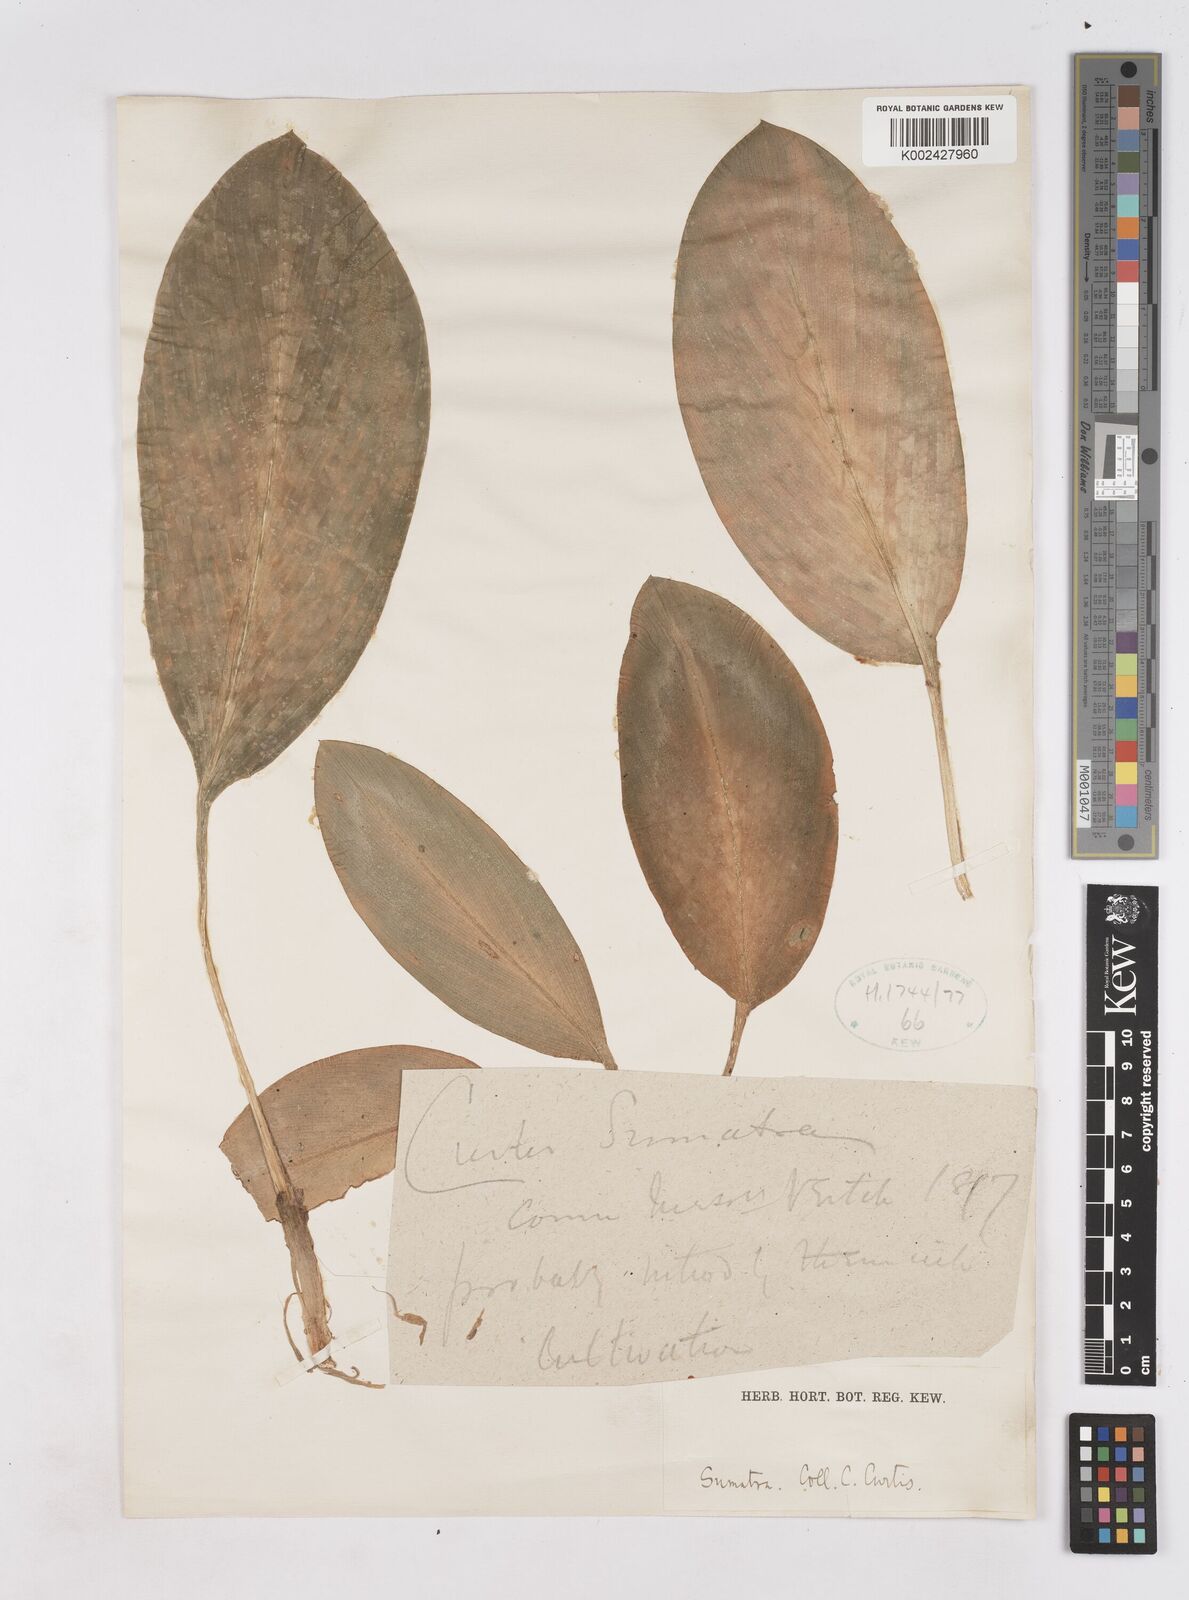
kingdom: Plantae
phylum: Tracheophyta
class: Liliopsida
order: Zingiberales
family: Zingiberaceae
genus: Boesenbergia
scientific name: Boesenbergia
